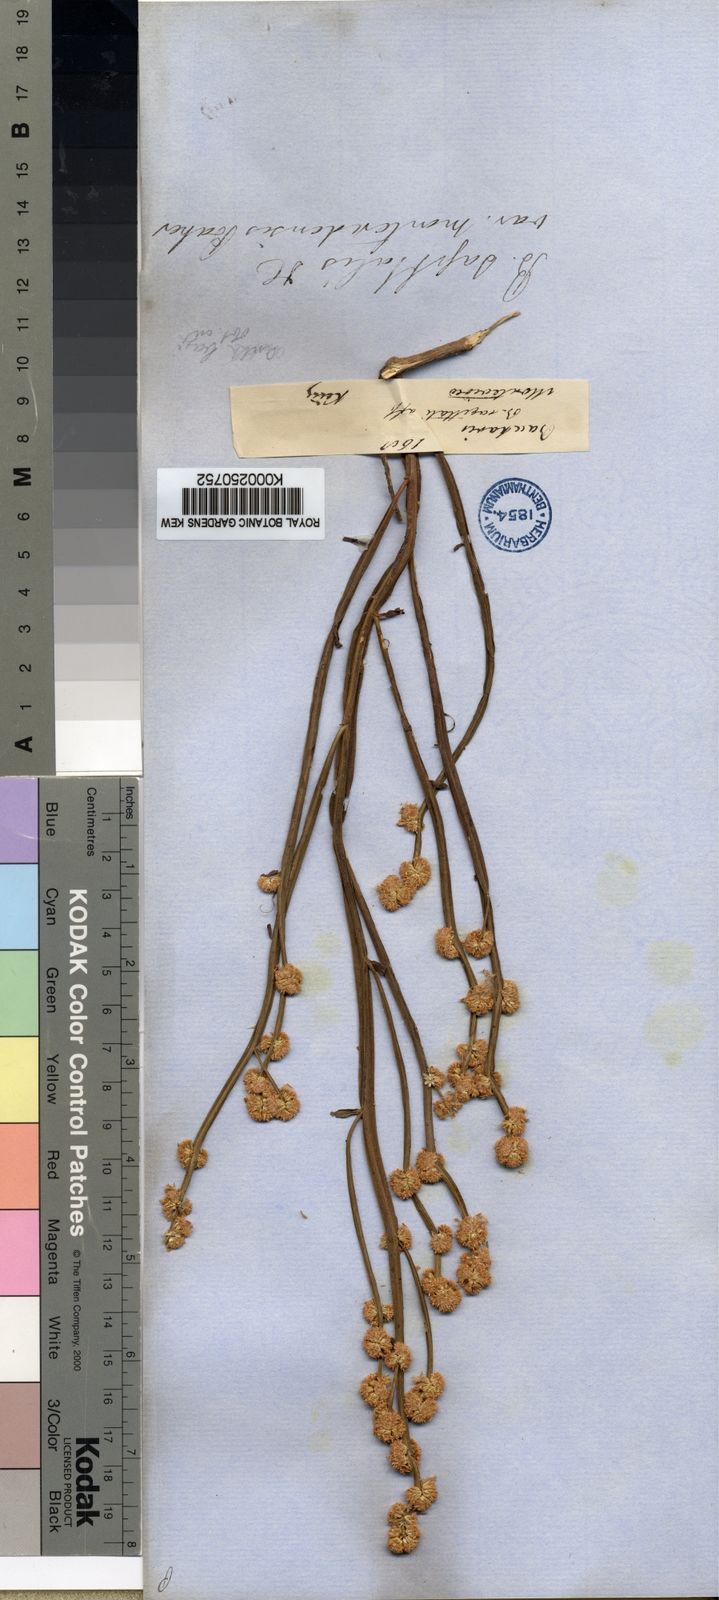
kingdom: Plantae
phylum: Tracheophyta
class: Magnoliopsida
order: Asterales
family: Asteraceae
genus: Baccharis
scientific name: Baccharis subtropicalis
